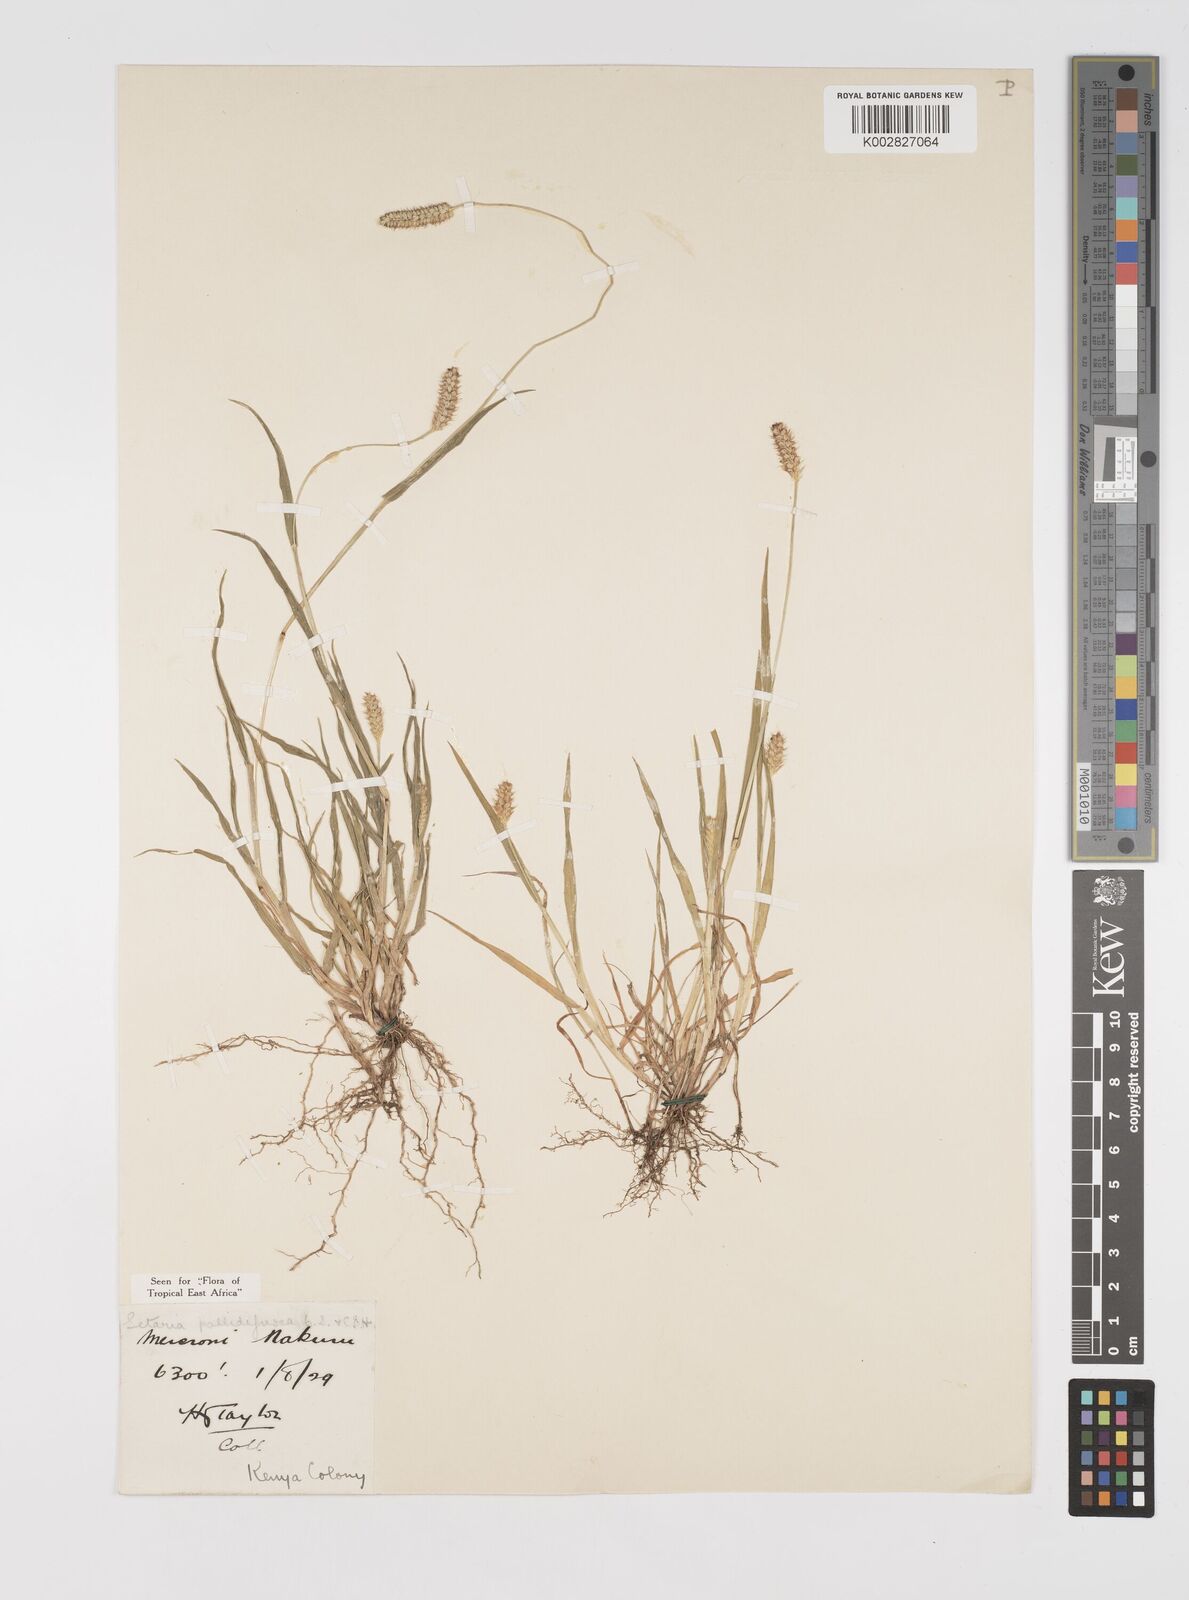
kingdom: Plantae
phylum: Tracheophyta
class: Liliopsida
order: Poales
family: Poaceae
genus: Setaria
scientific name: Setaria pumila
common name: Yellow bristle-grass
